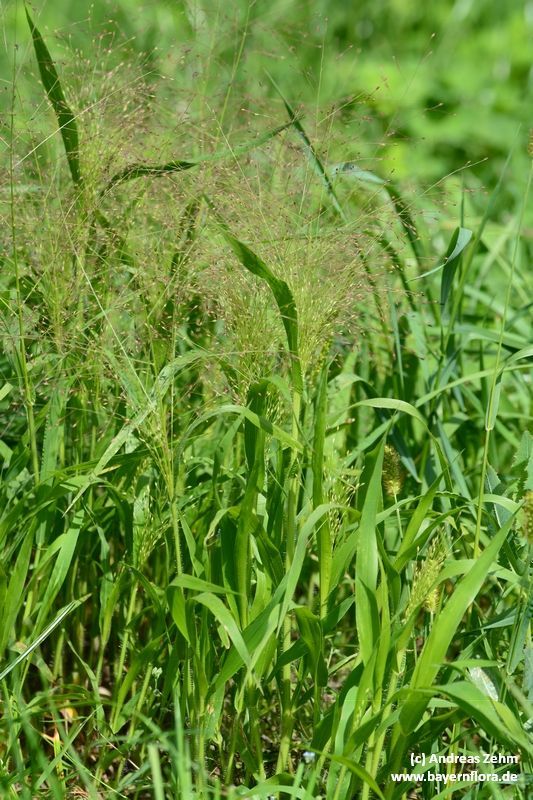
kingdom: Plantae
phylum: Tracheophyta
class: Liliopsida
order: Poales
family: Poaceae
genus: Panicum
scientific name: Panicum capillare
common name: Witch-grass
